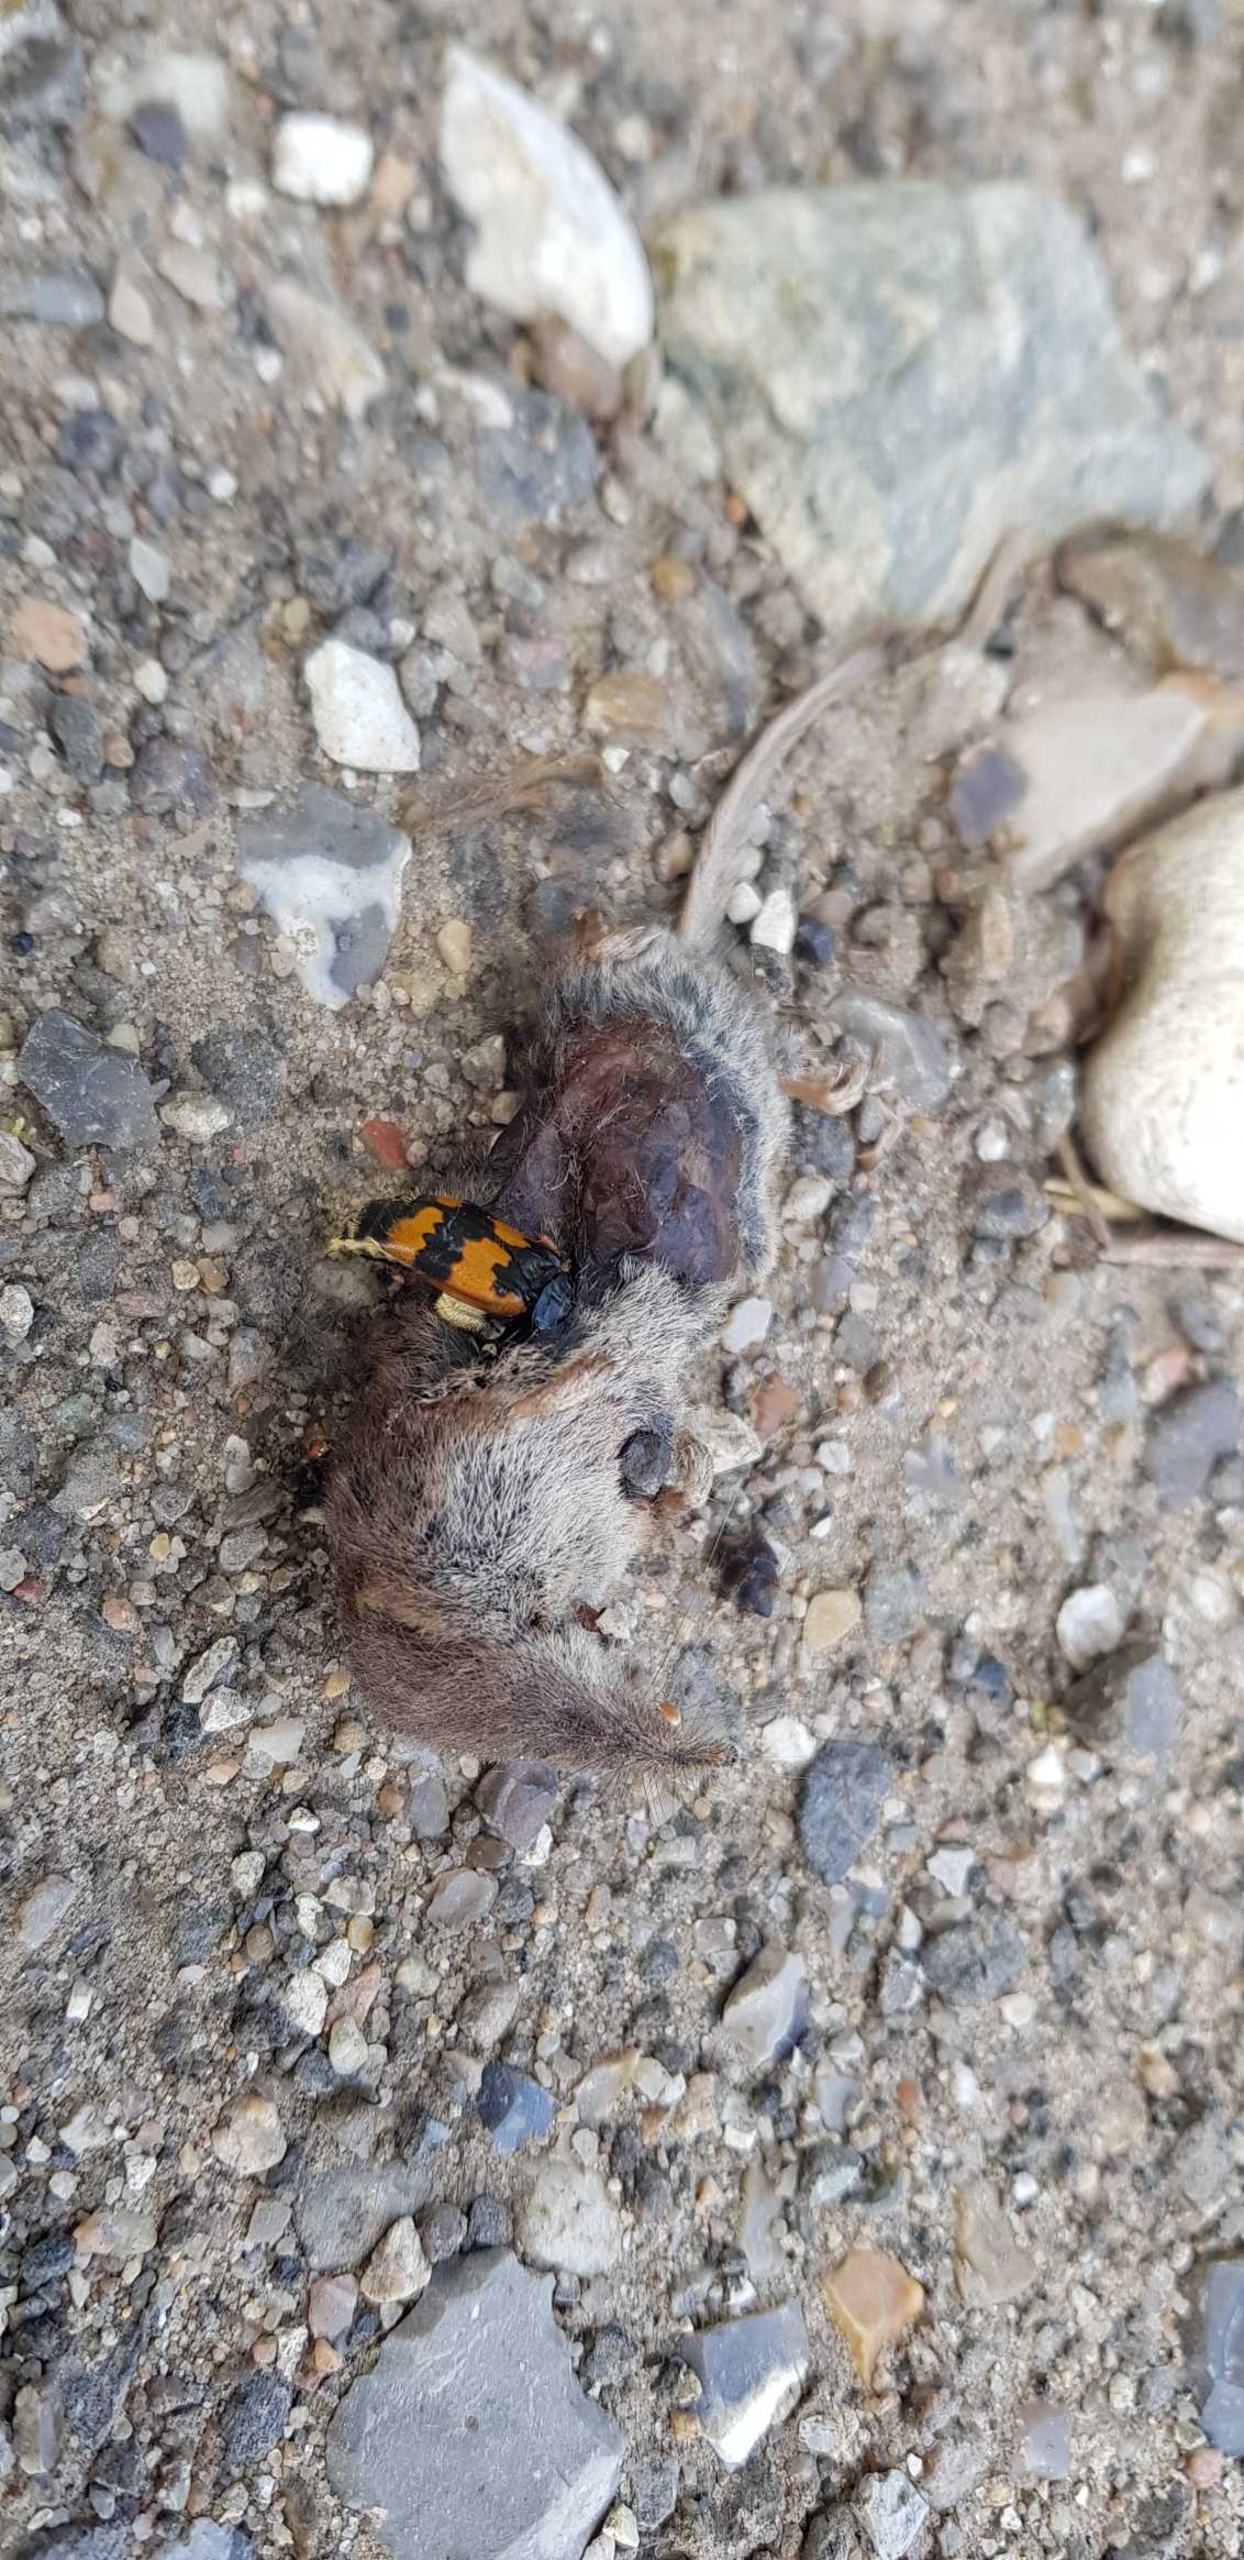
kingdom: Animalia
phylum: Arthropoda
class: Insecta
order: Coleoptera
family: Staphylinidae
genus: Nicrophorus
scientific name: Nicrophorus
